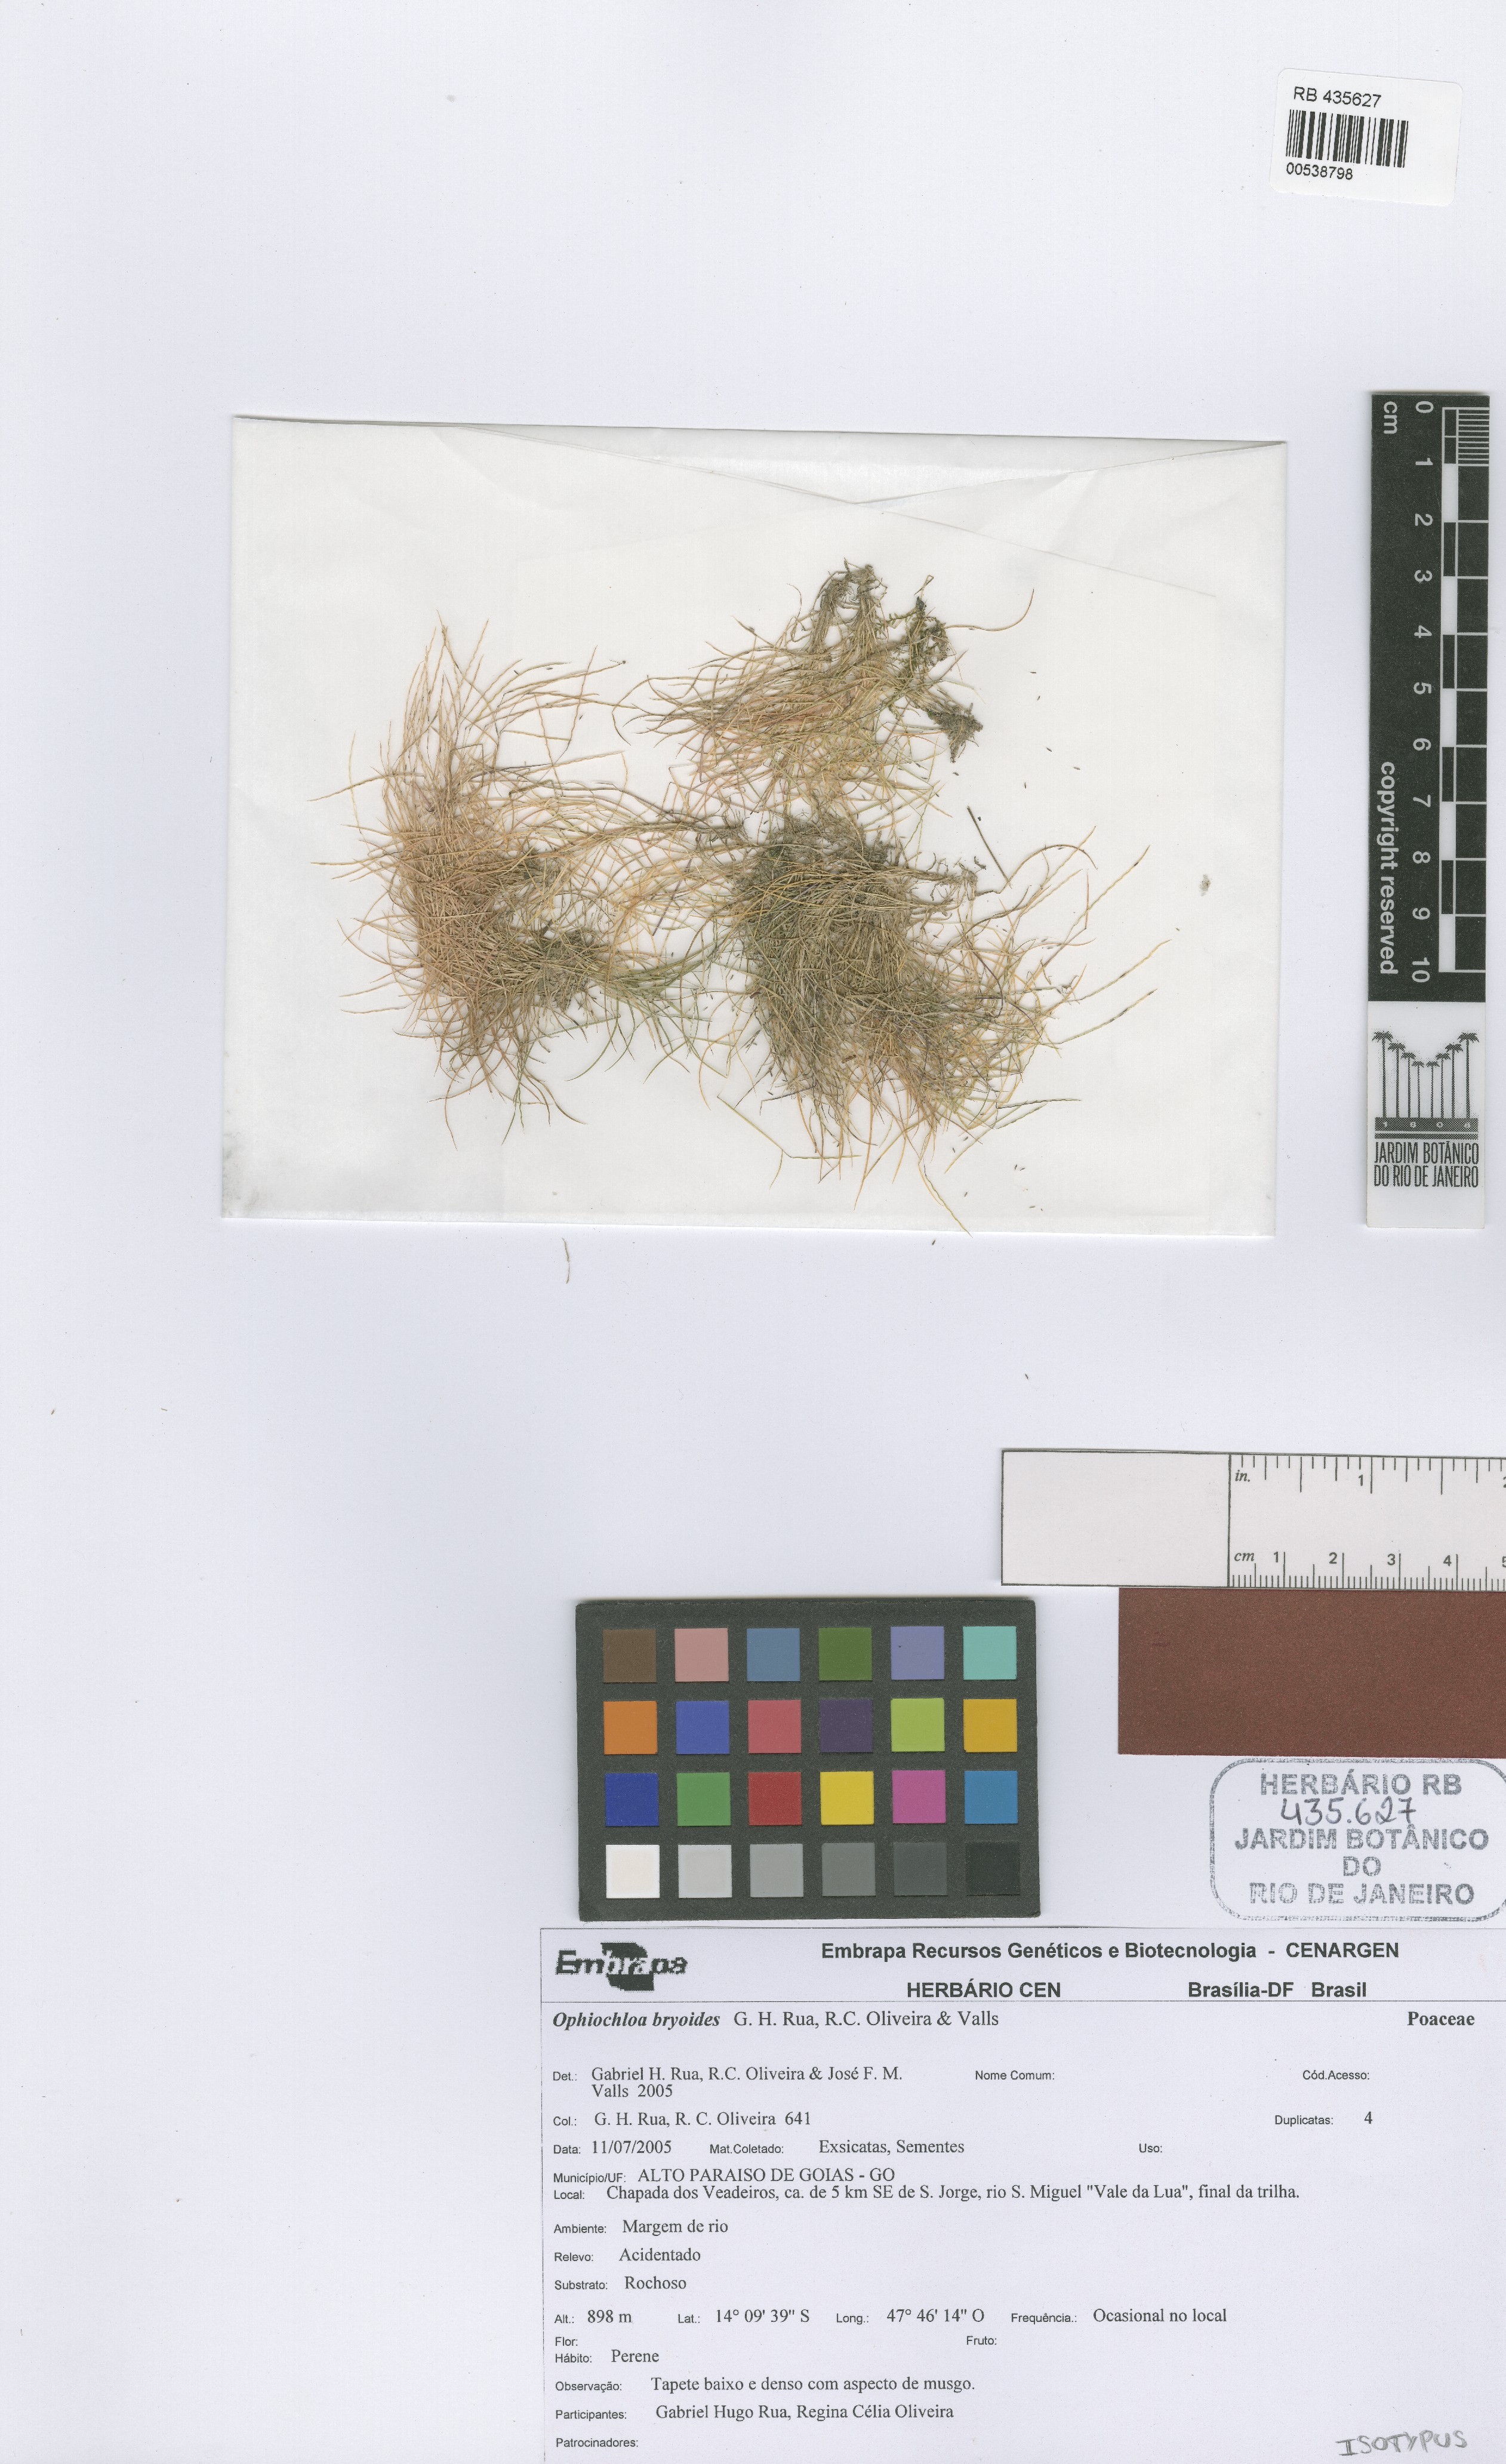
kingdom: Plantae
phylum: Tracheophyta
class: Liliopsida
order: Poales
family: Poaceae
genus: Axonopus
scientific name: Axonopus bryoides
